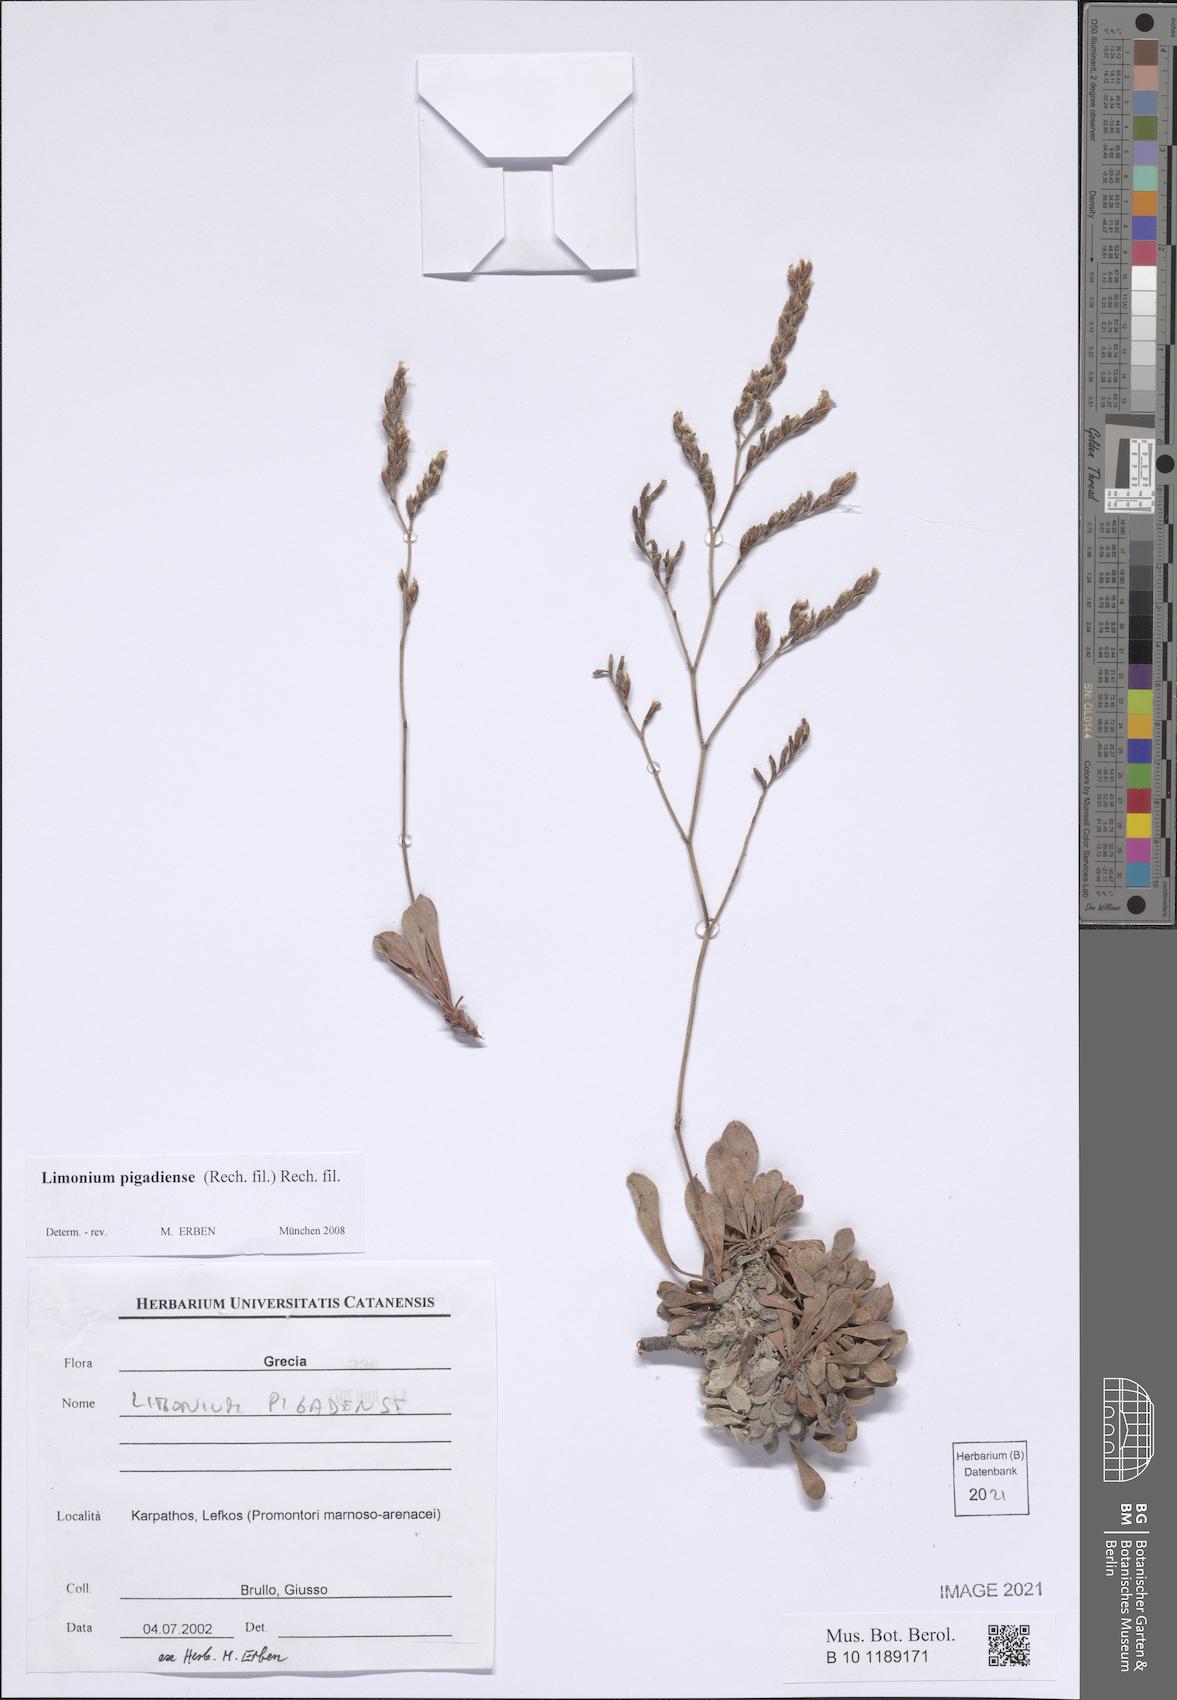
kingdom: Plantae
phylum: Tracheophyta
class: Magnoliopsida
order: Caryophyllales
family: Plumbaginaceae
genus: Limonium
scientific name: Limonium pigadiense
